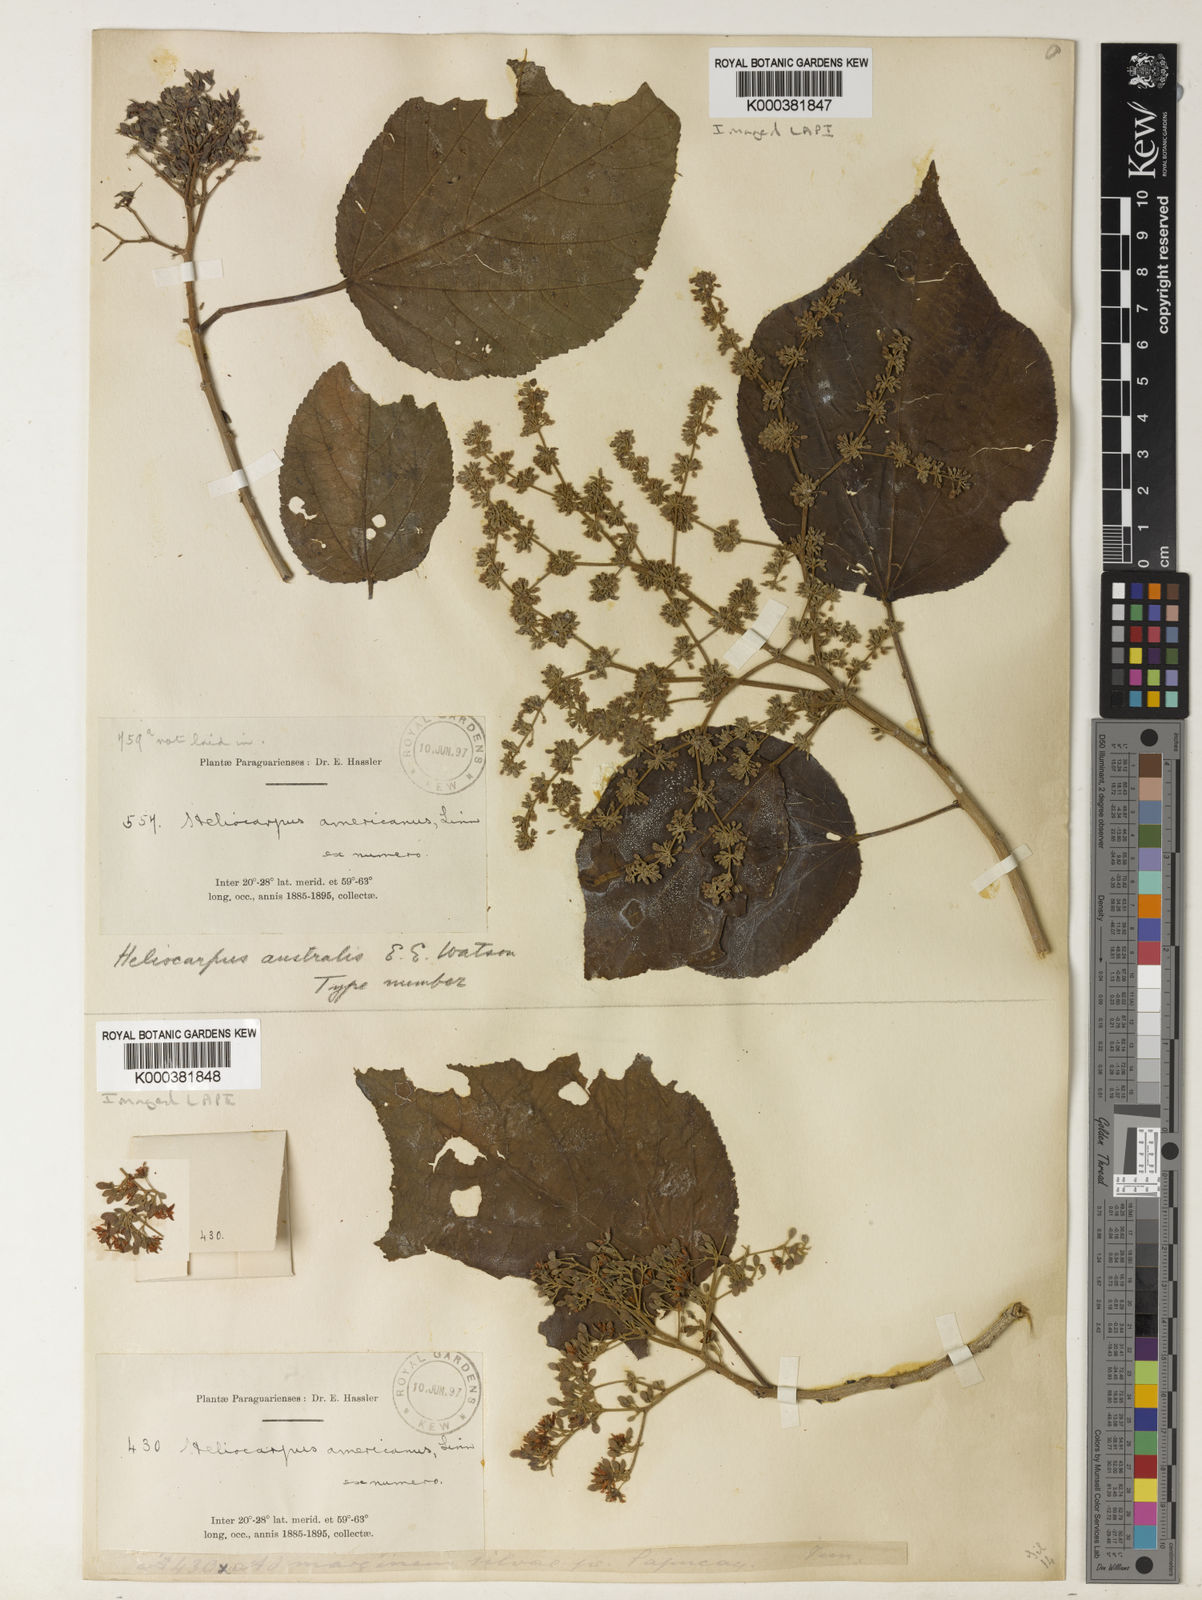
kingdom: Plantae
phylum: Tracheophyta
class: Magnoliopsida
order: Malvales
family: Malvaceae
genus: Heliocarpus
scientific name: Heliocarpus americanus
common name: White moho
